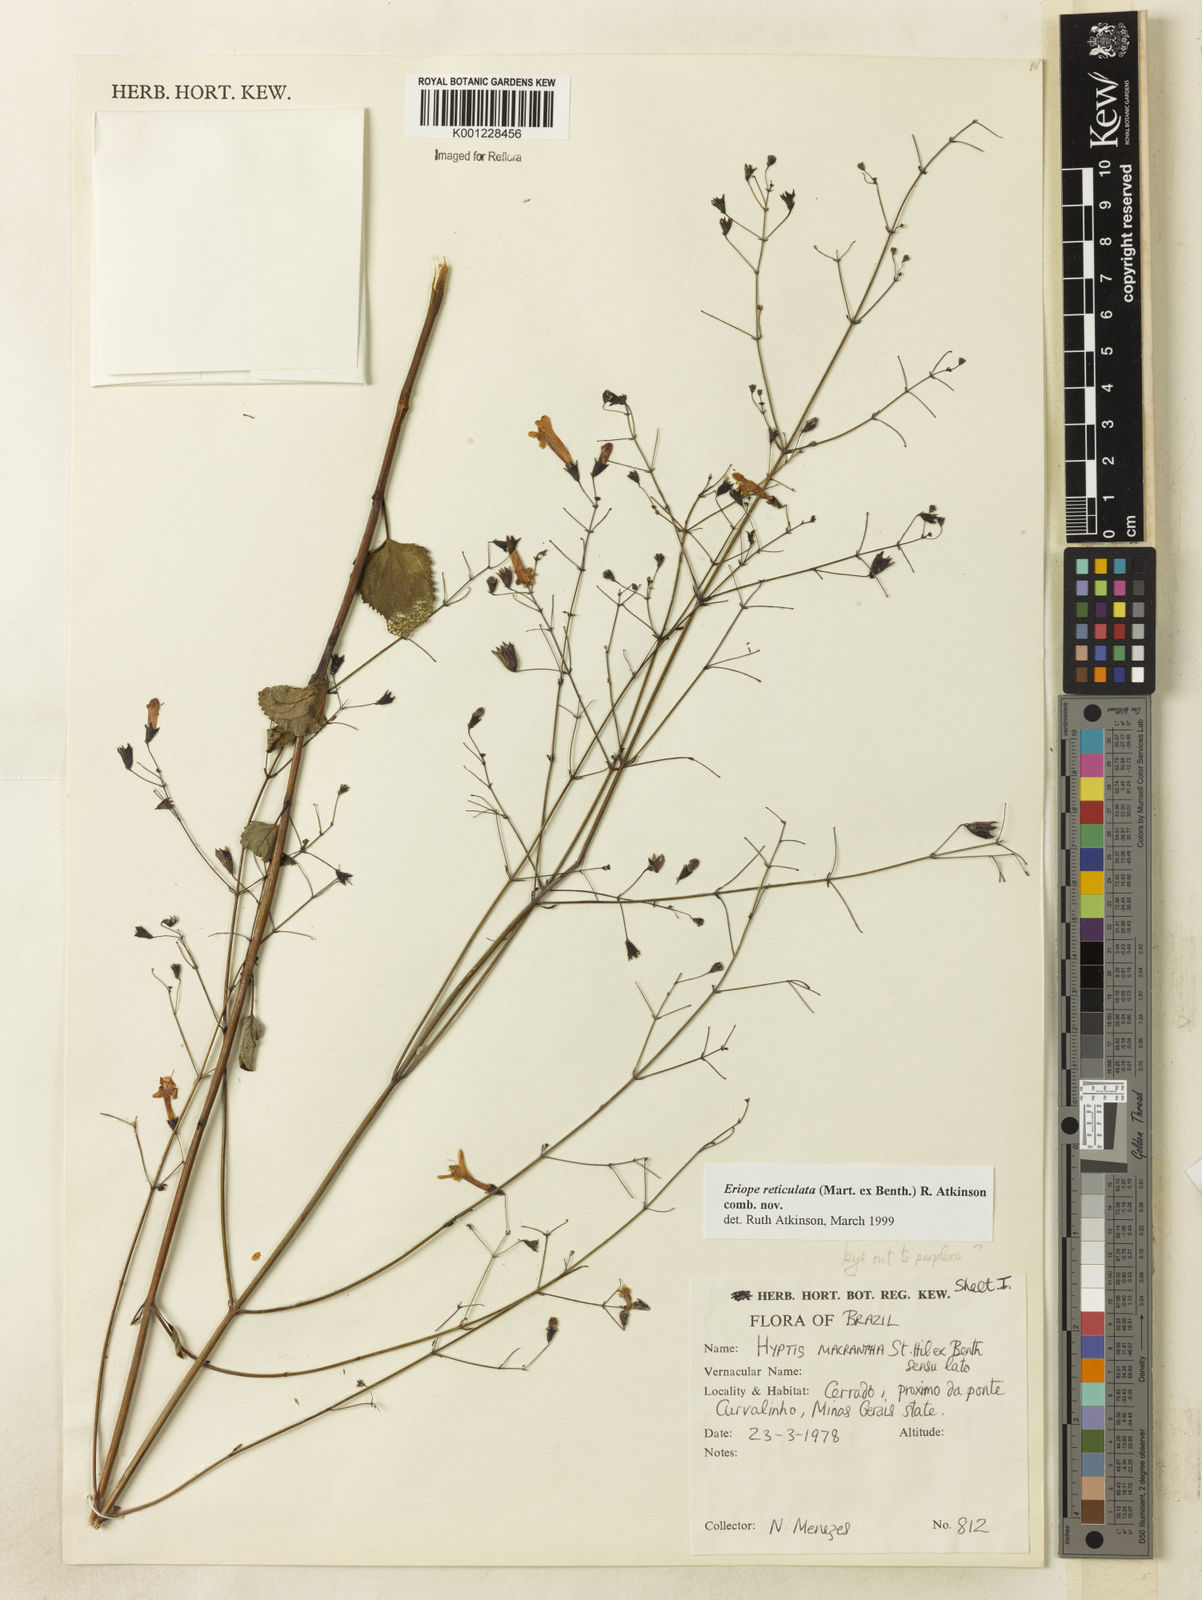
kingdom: Plantae
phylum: Tracheophyta
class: Magnoliopsida
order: Lamiales
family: Lamiaceae
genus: Hypenia
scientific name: Hypenia reticulata
